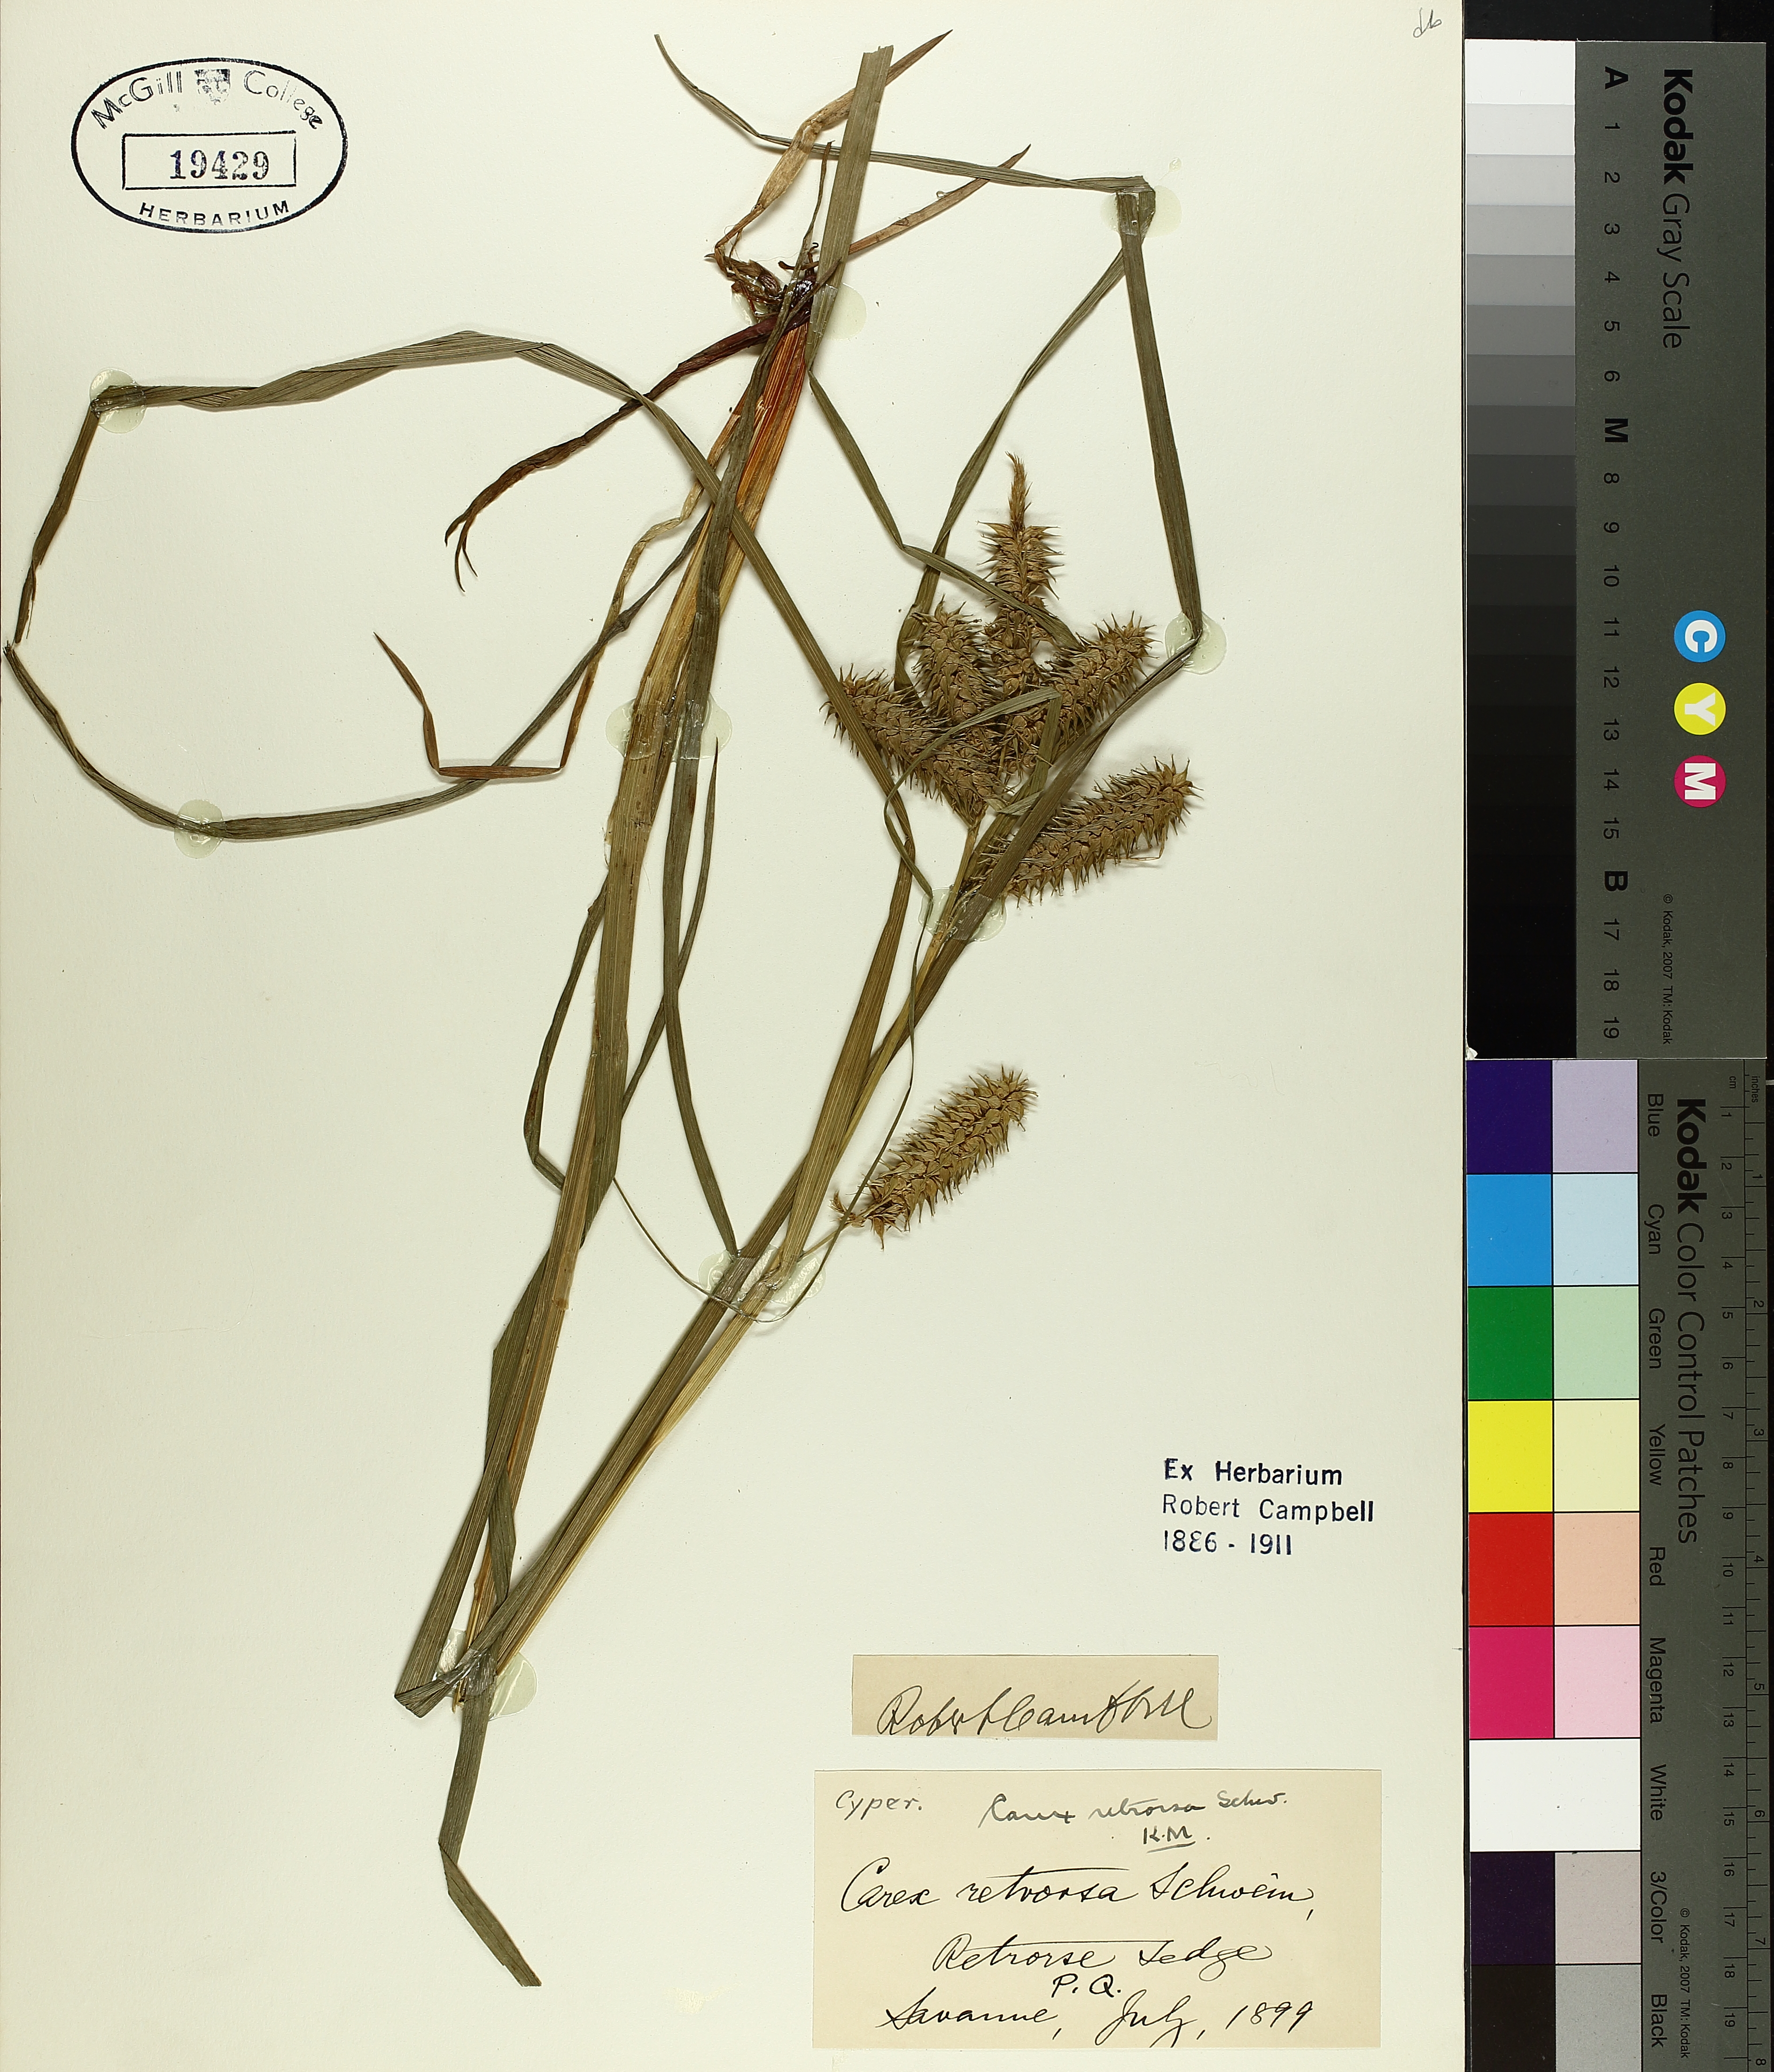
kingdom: Plantae
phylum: Tracheophyta
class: Liliopsida
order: Poales
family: Cyperaceae
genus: Carex
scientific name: Carex retrorsa
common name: Knot-sheath sedge
